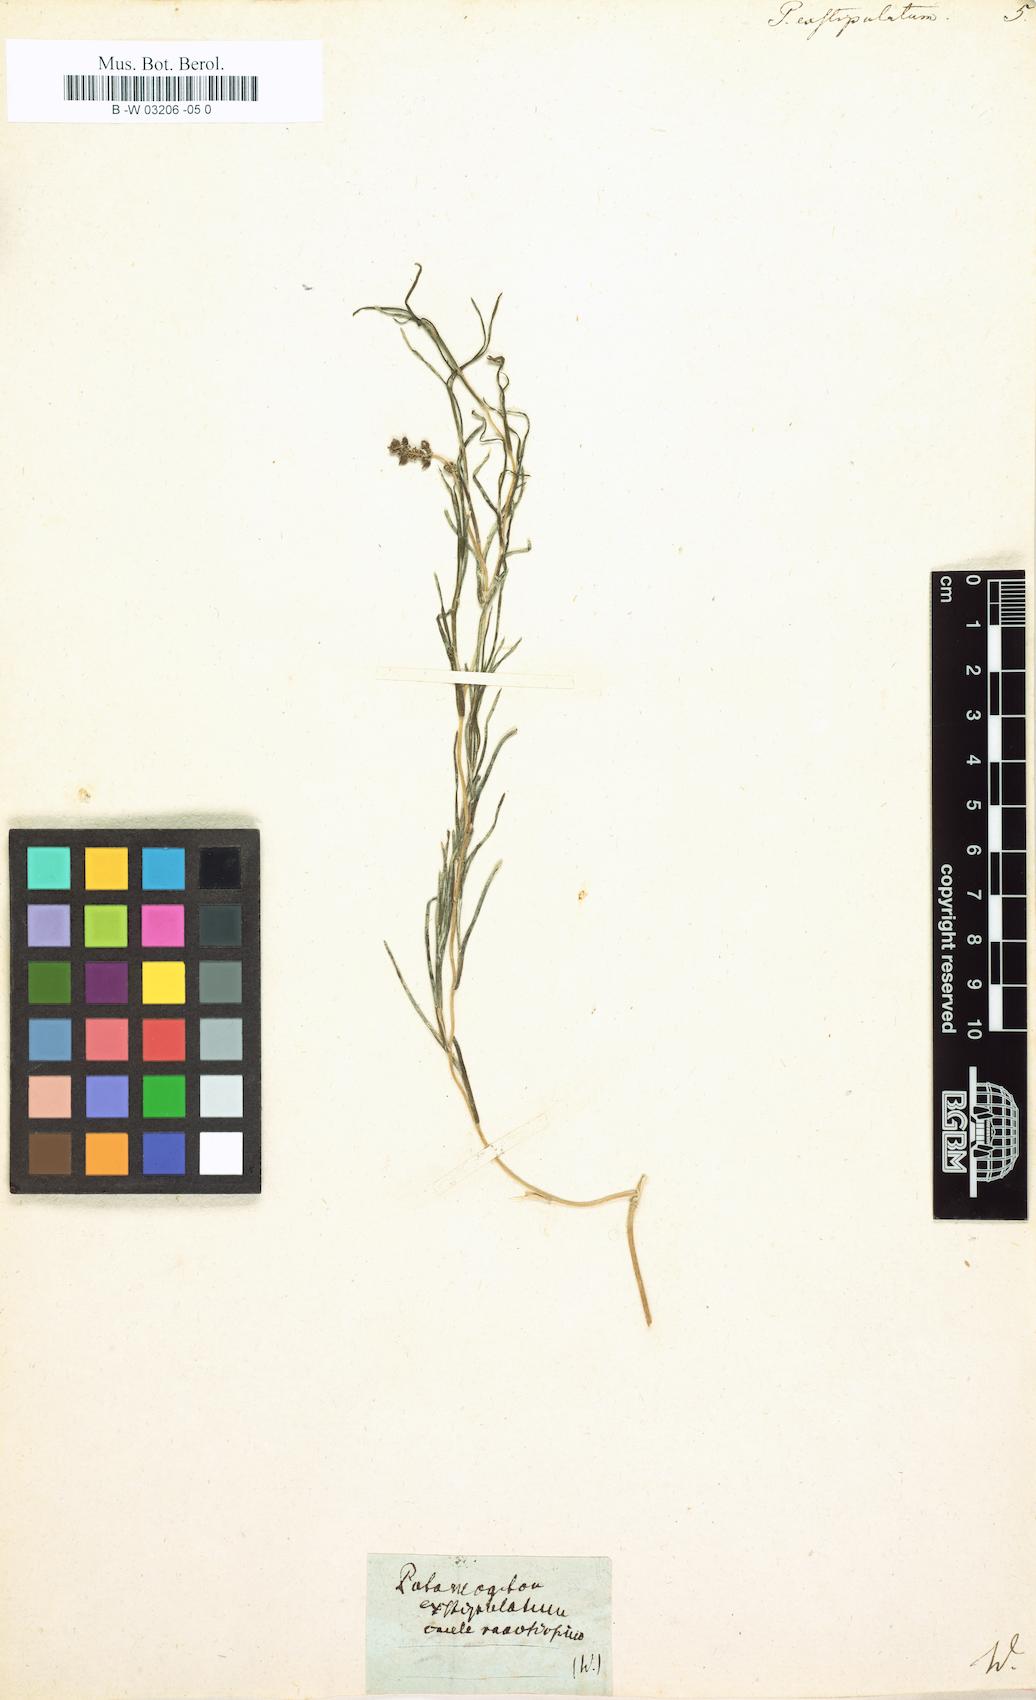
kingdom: Plantae
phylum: Tracheophyta
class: Liliopsida
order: Alismatales
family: Potamogetonaceae
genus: Potamogeton
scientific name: Potamogeton exstipulatus
